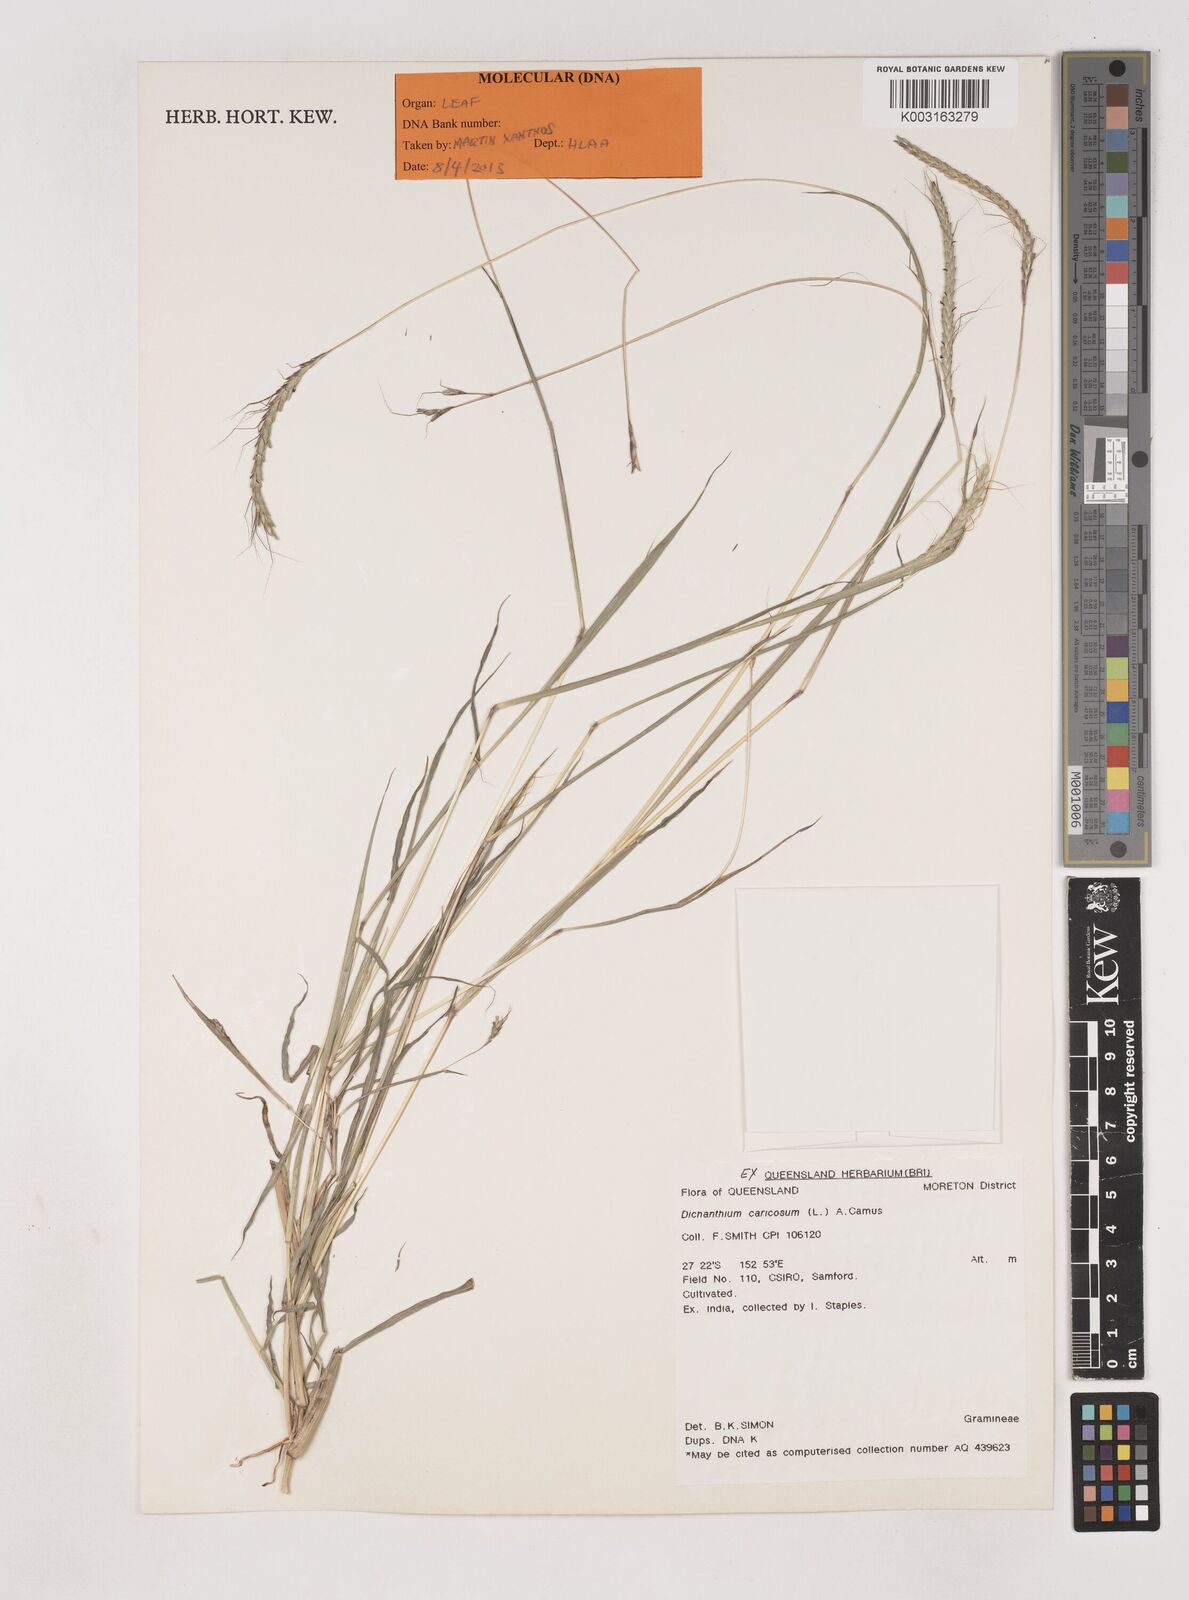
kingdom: Plantae
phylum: Tracheophyta
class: Liliopsida
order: Poales
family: Poaceae
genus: Dichanthium
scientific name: Dichanthium caricosum
